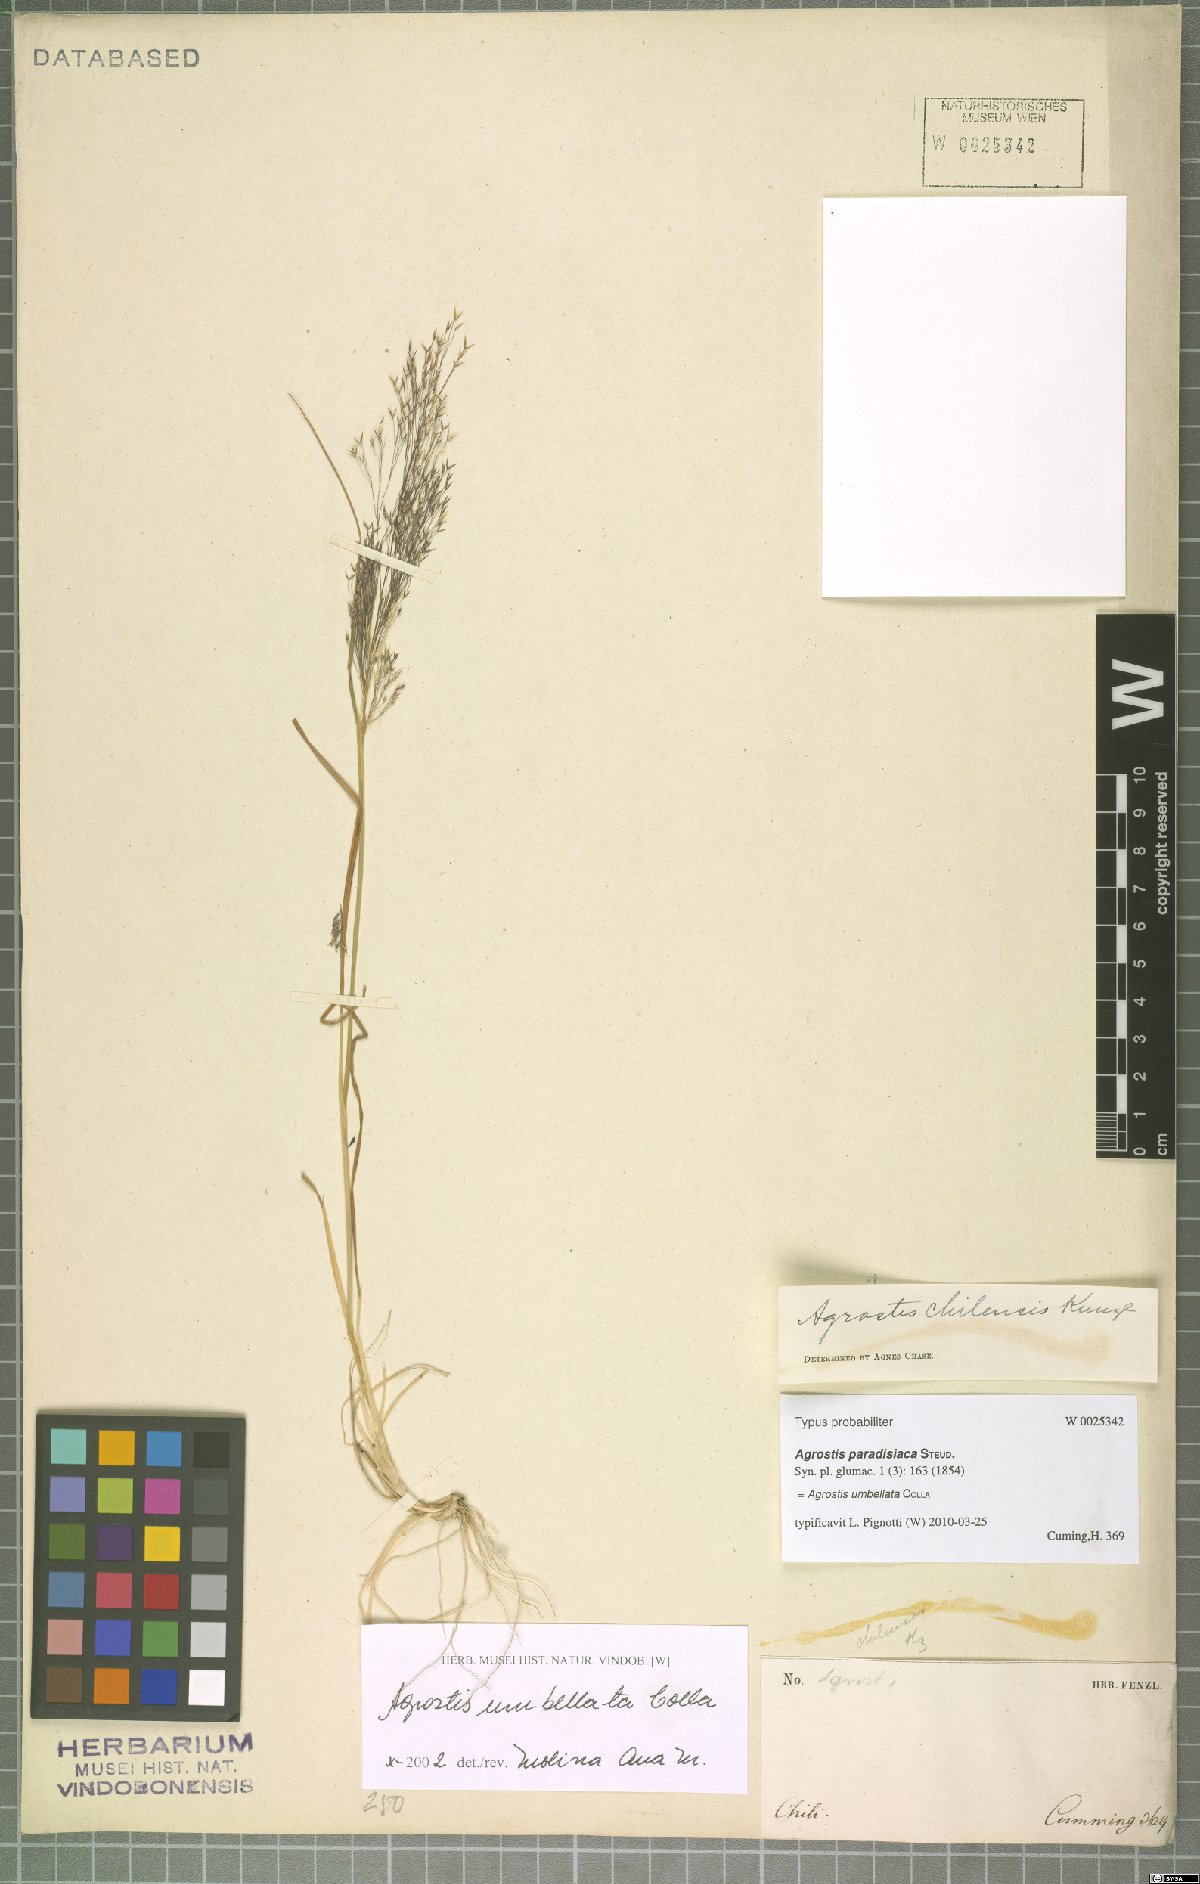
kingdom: Plantae
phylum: Tracheophyta
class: Liliopsida
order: Poales
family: Poaceae
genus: Agrostis
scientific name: Agrostis umbellata
